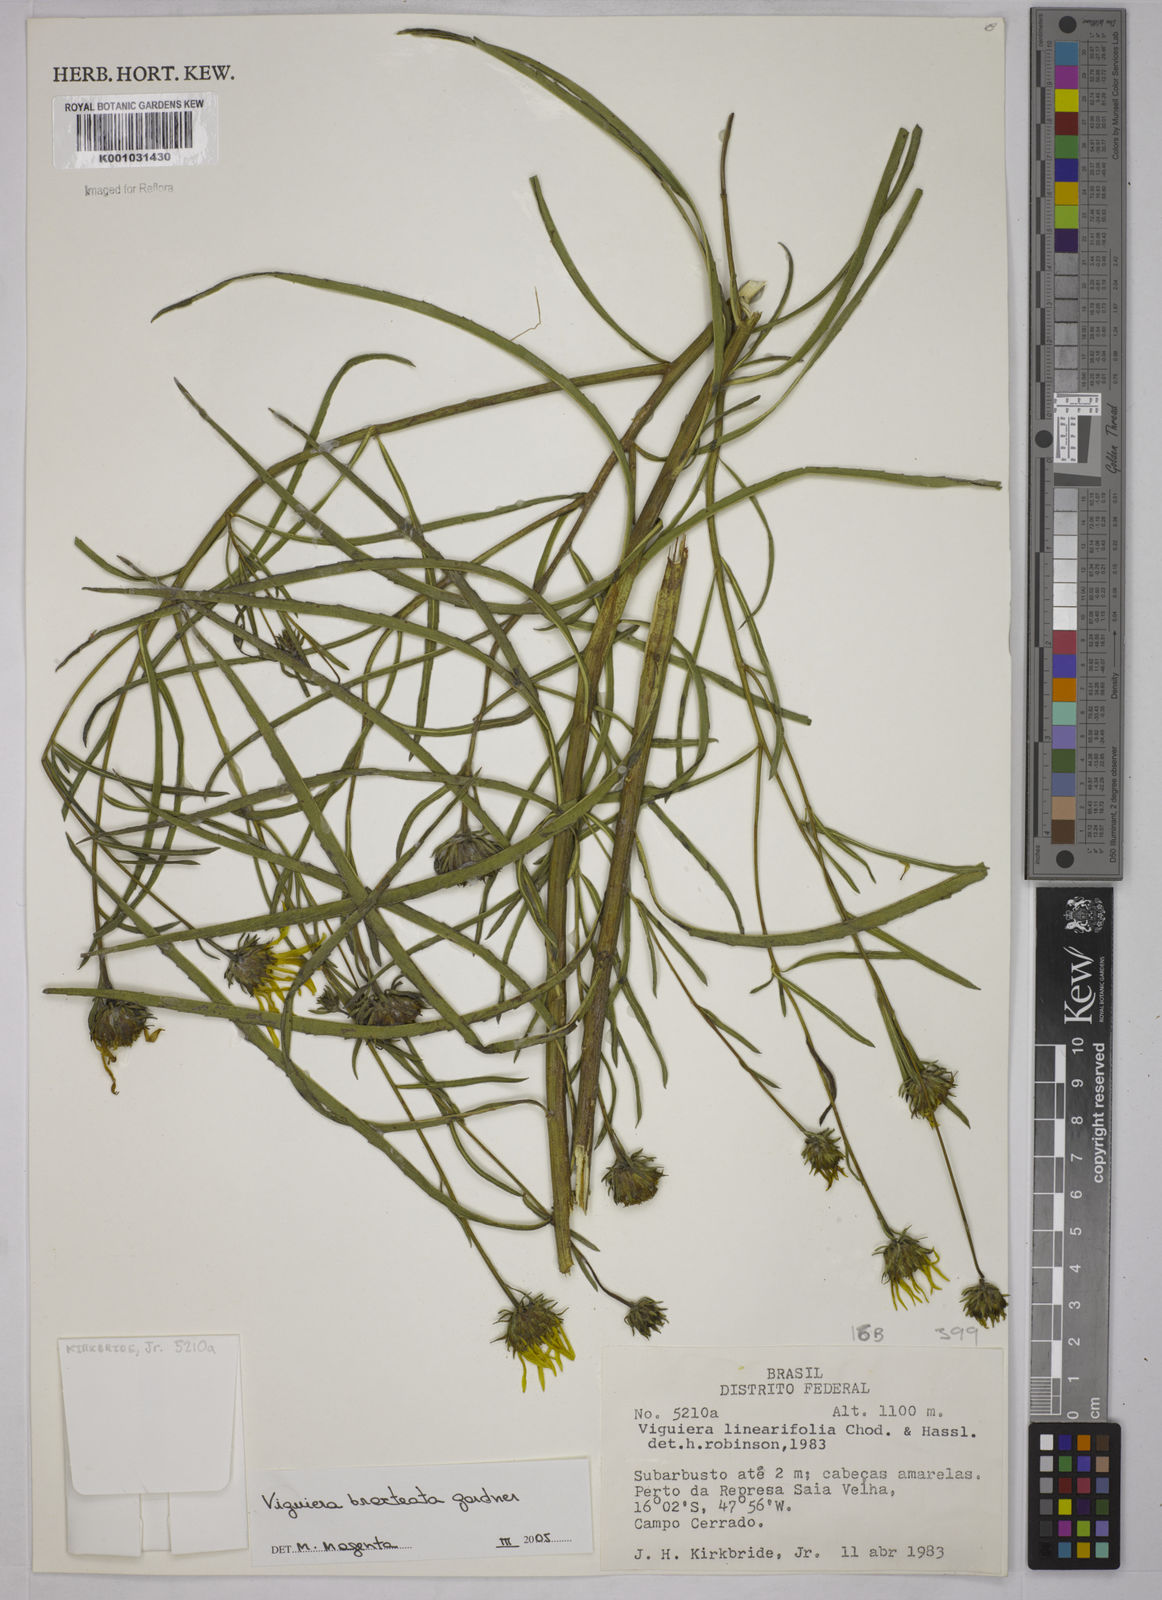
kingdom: Plantae
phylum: Tracheophyta
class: Magnoliopsida
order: Asterales
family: Asteraceae
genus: Aldama
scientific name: Aldama bracteata
